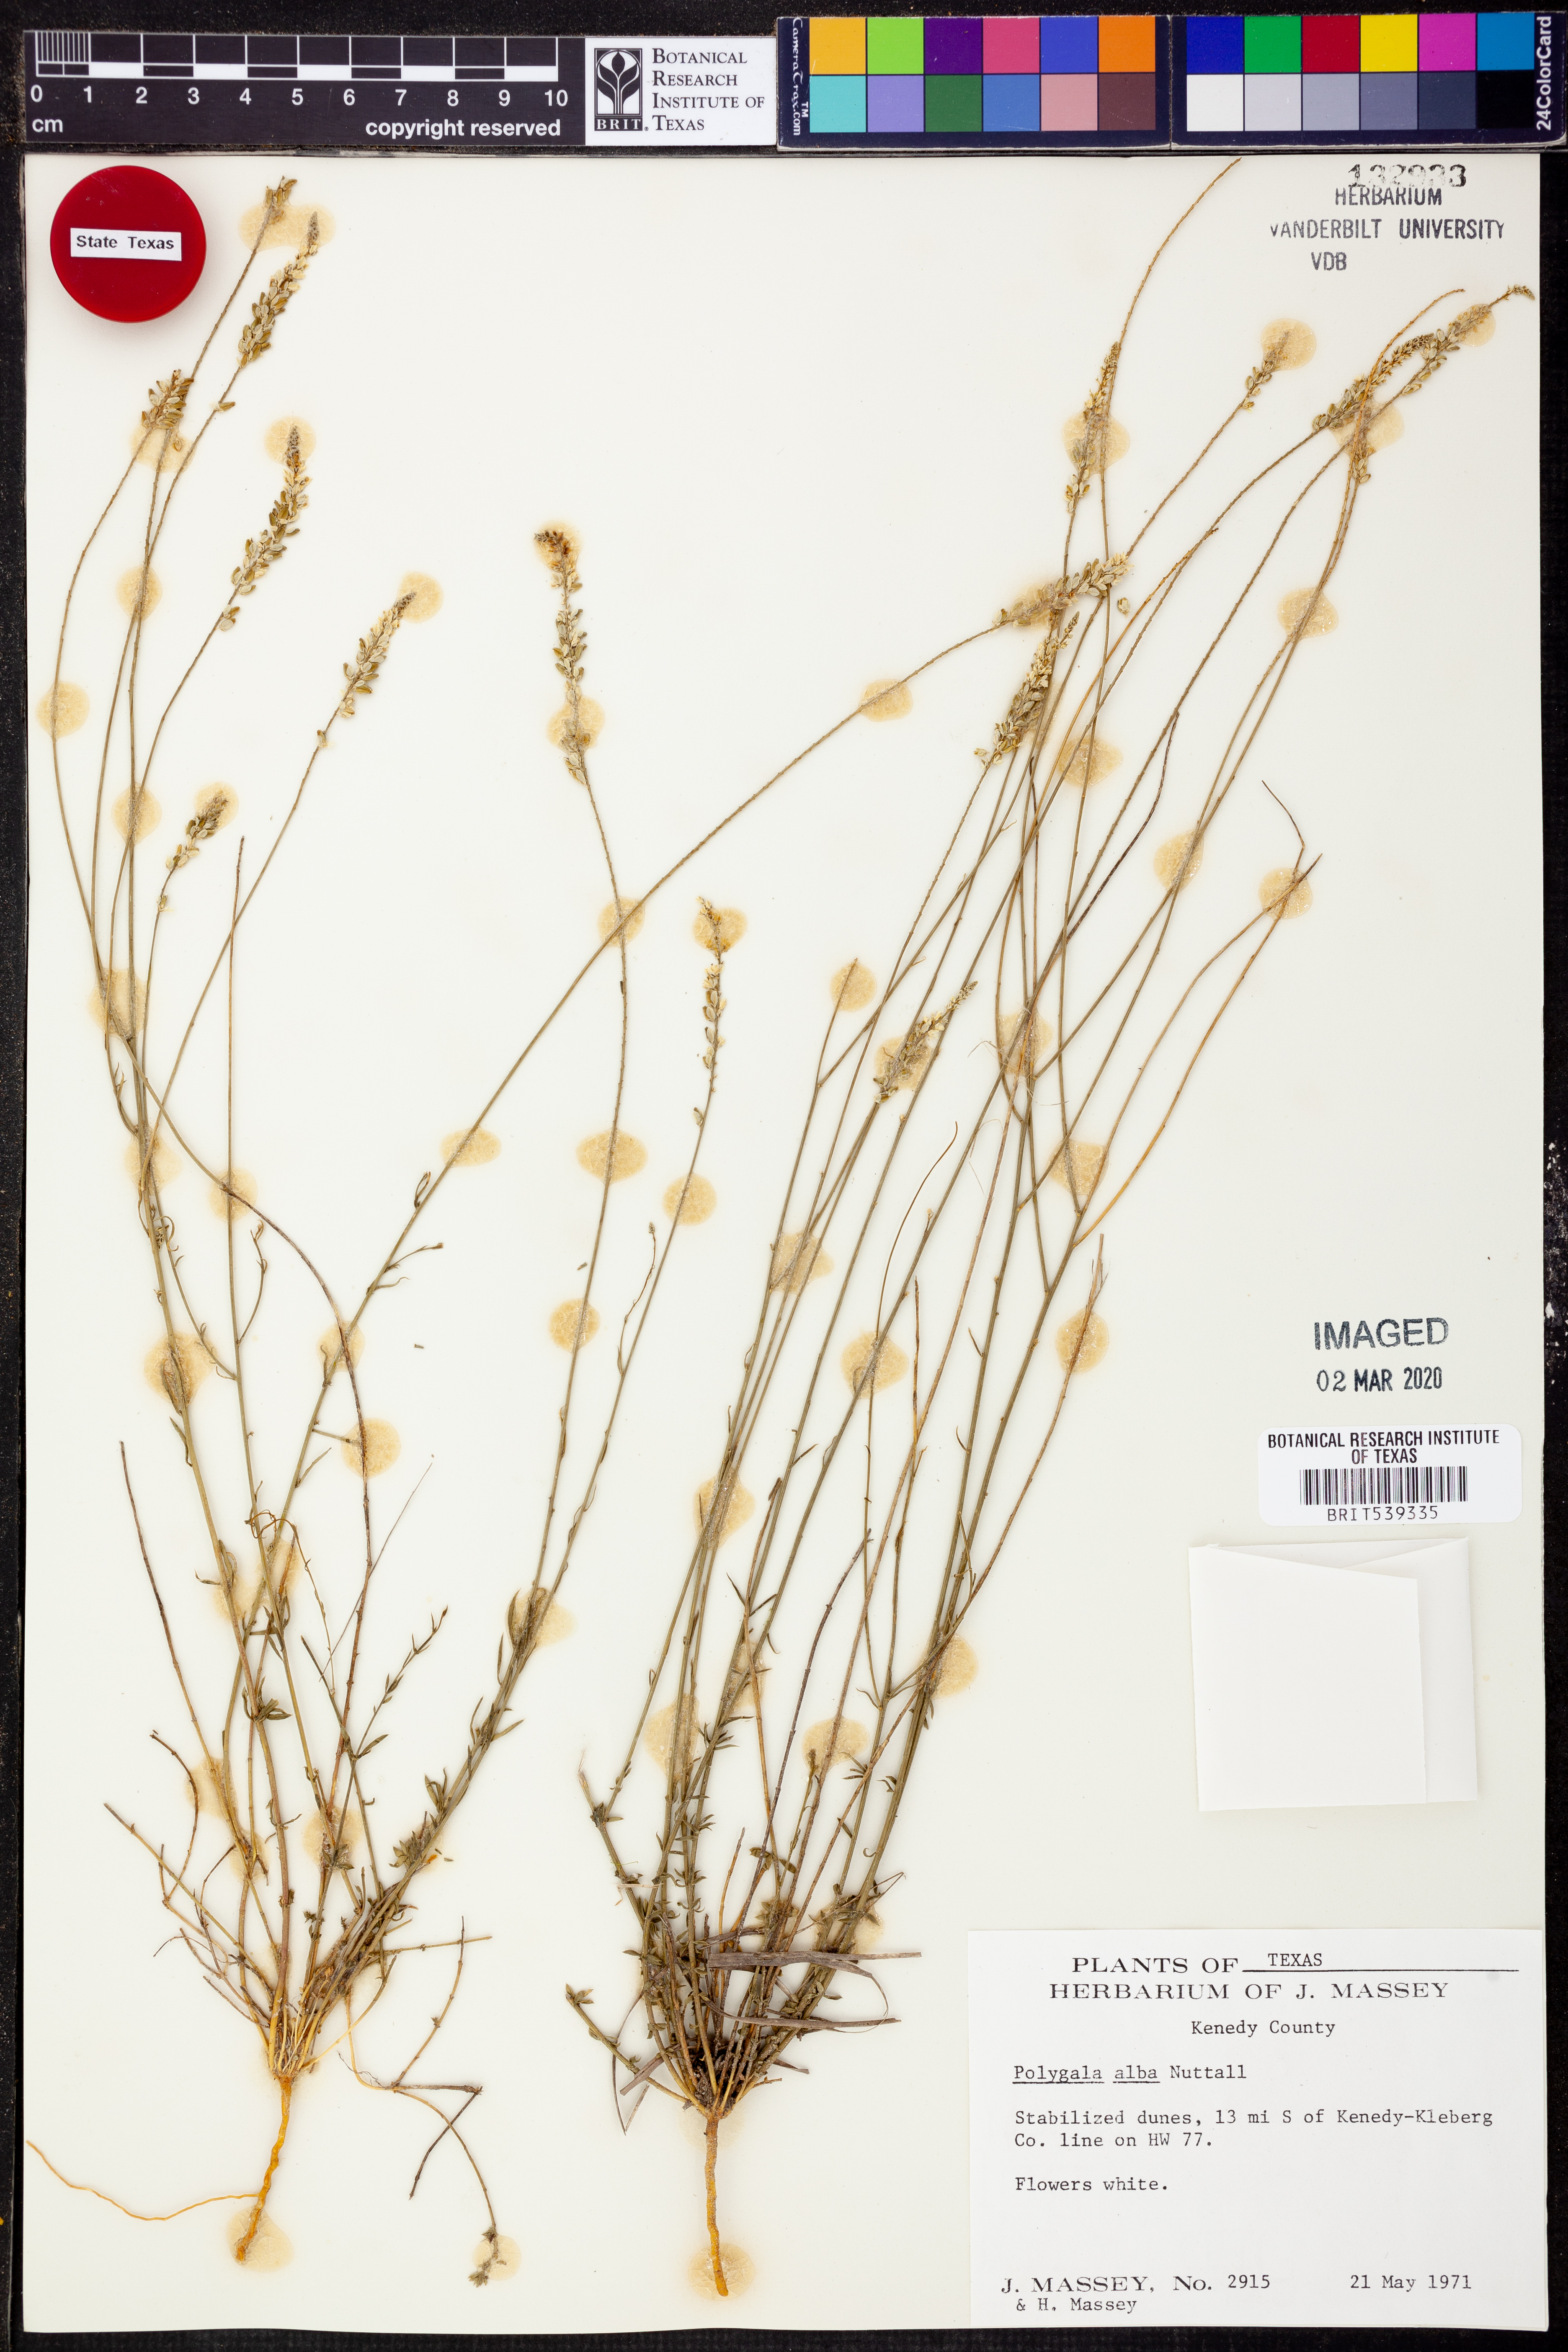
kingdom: Plantae
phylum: Tracheophyta
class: Magnoliopsida
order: Fabales
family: Polygalaceae
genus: Polygala
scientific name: Polygala alba
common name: White milkwort
